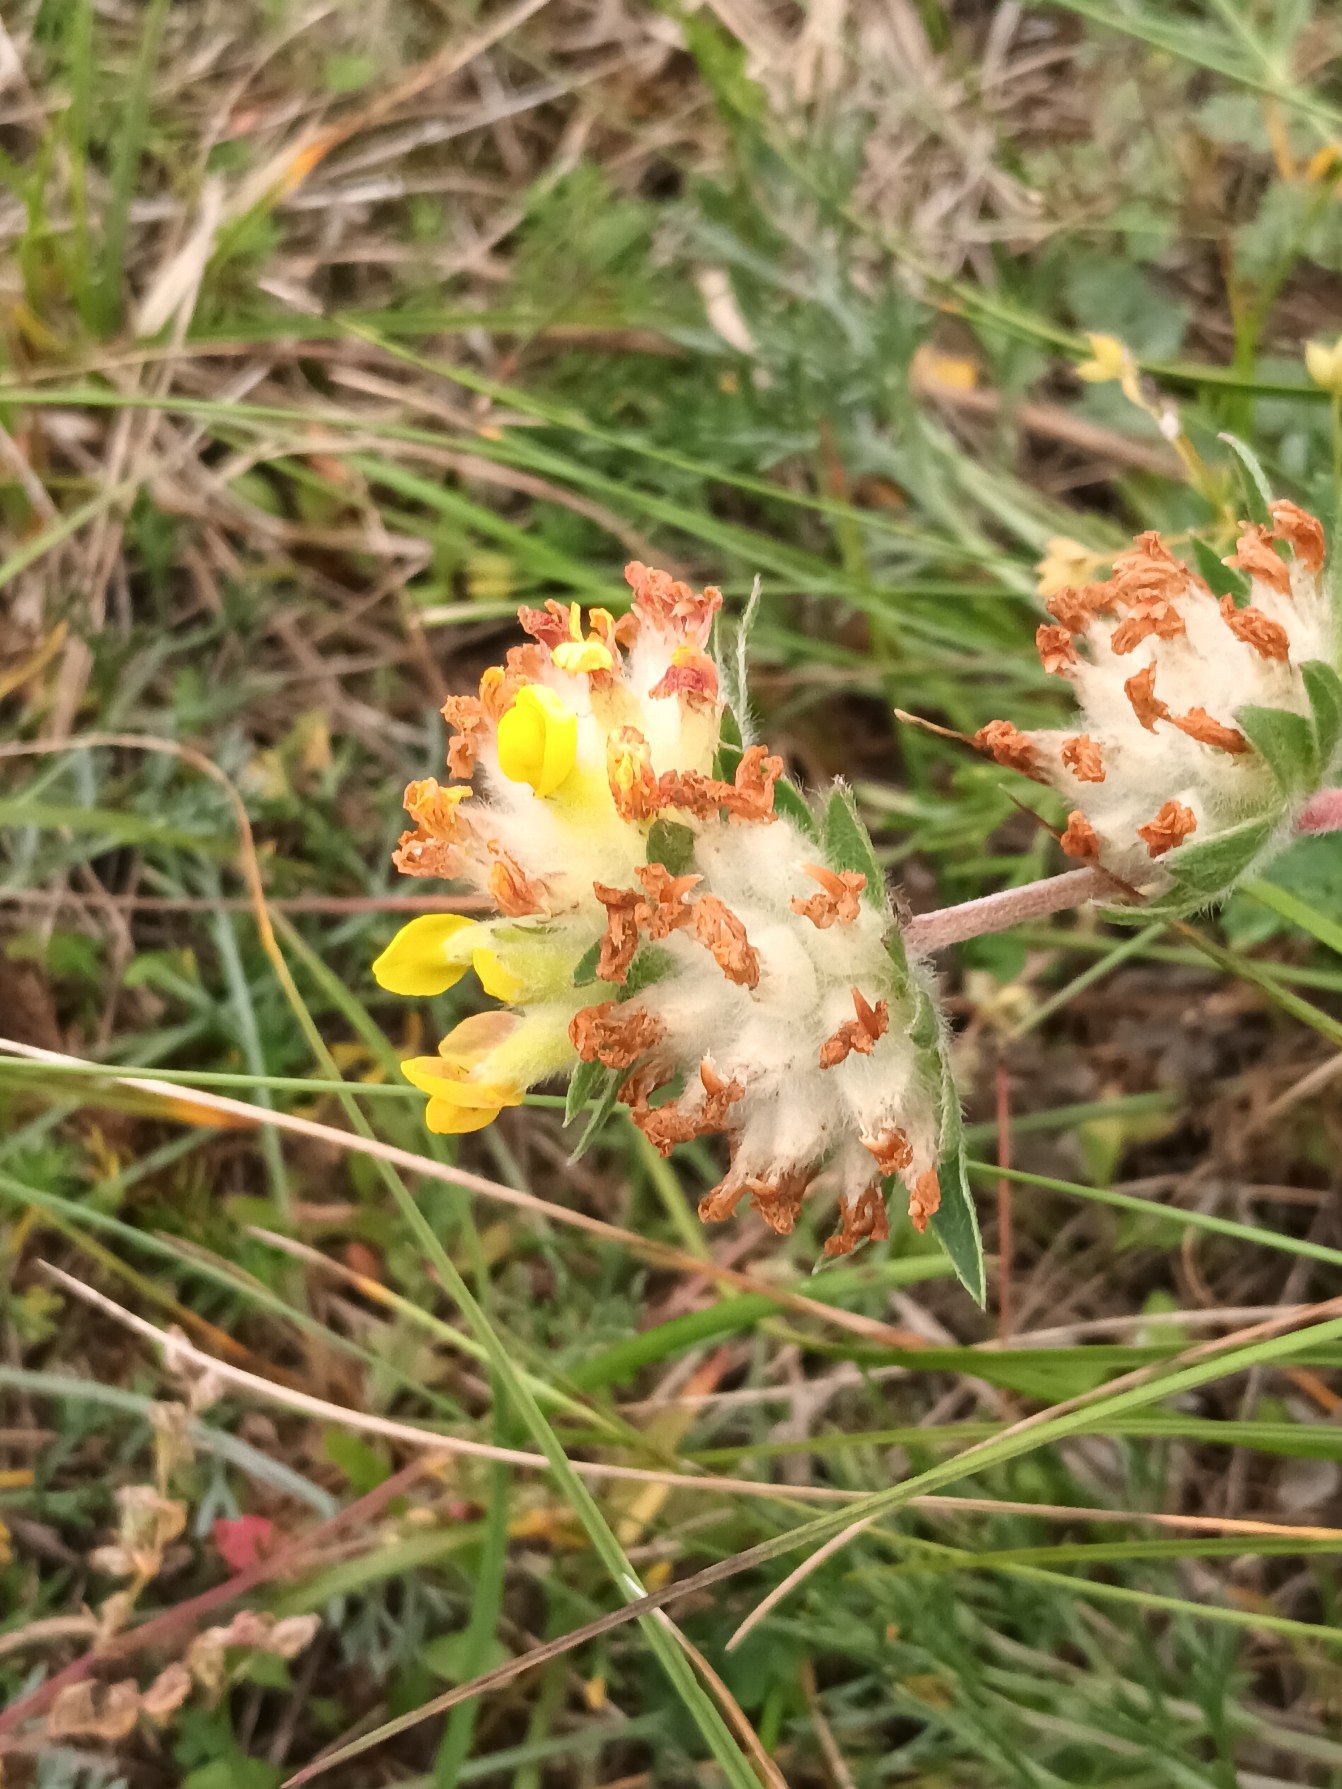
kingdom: Plantae
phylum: Tracheophyta
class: Magnoliopsida
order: Fabales
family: Fabaceae
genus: Anthyllis
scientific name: Anthyllis vulneraria
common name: Rundbælg
